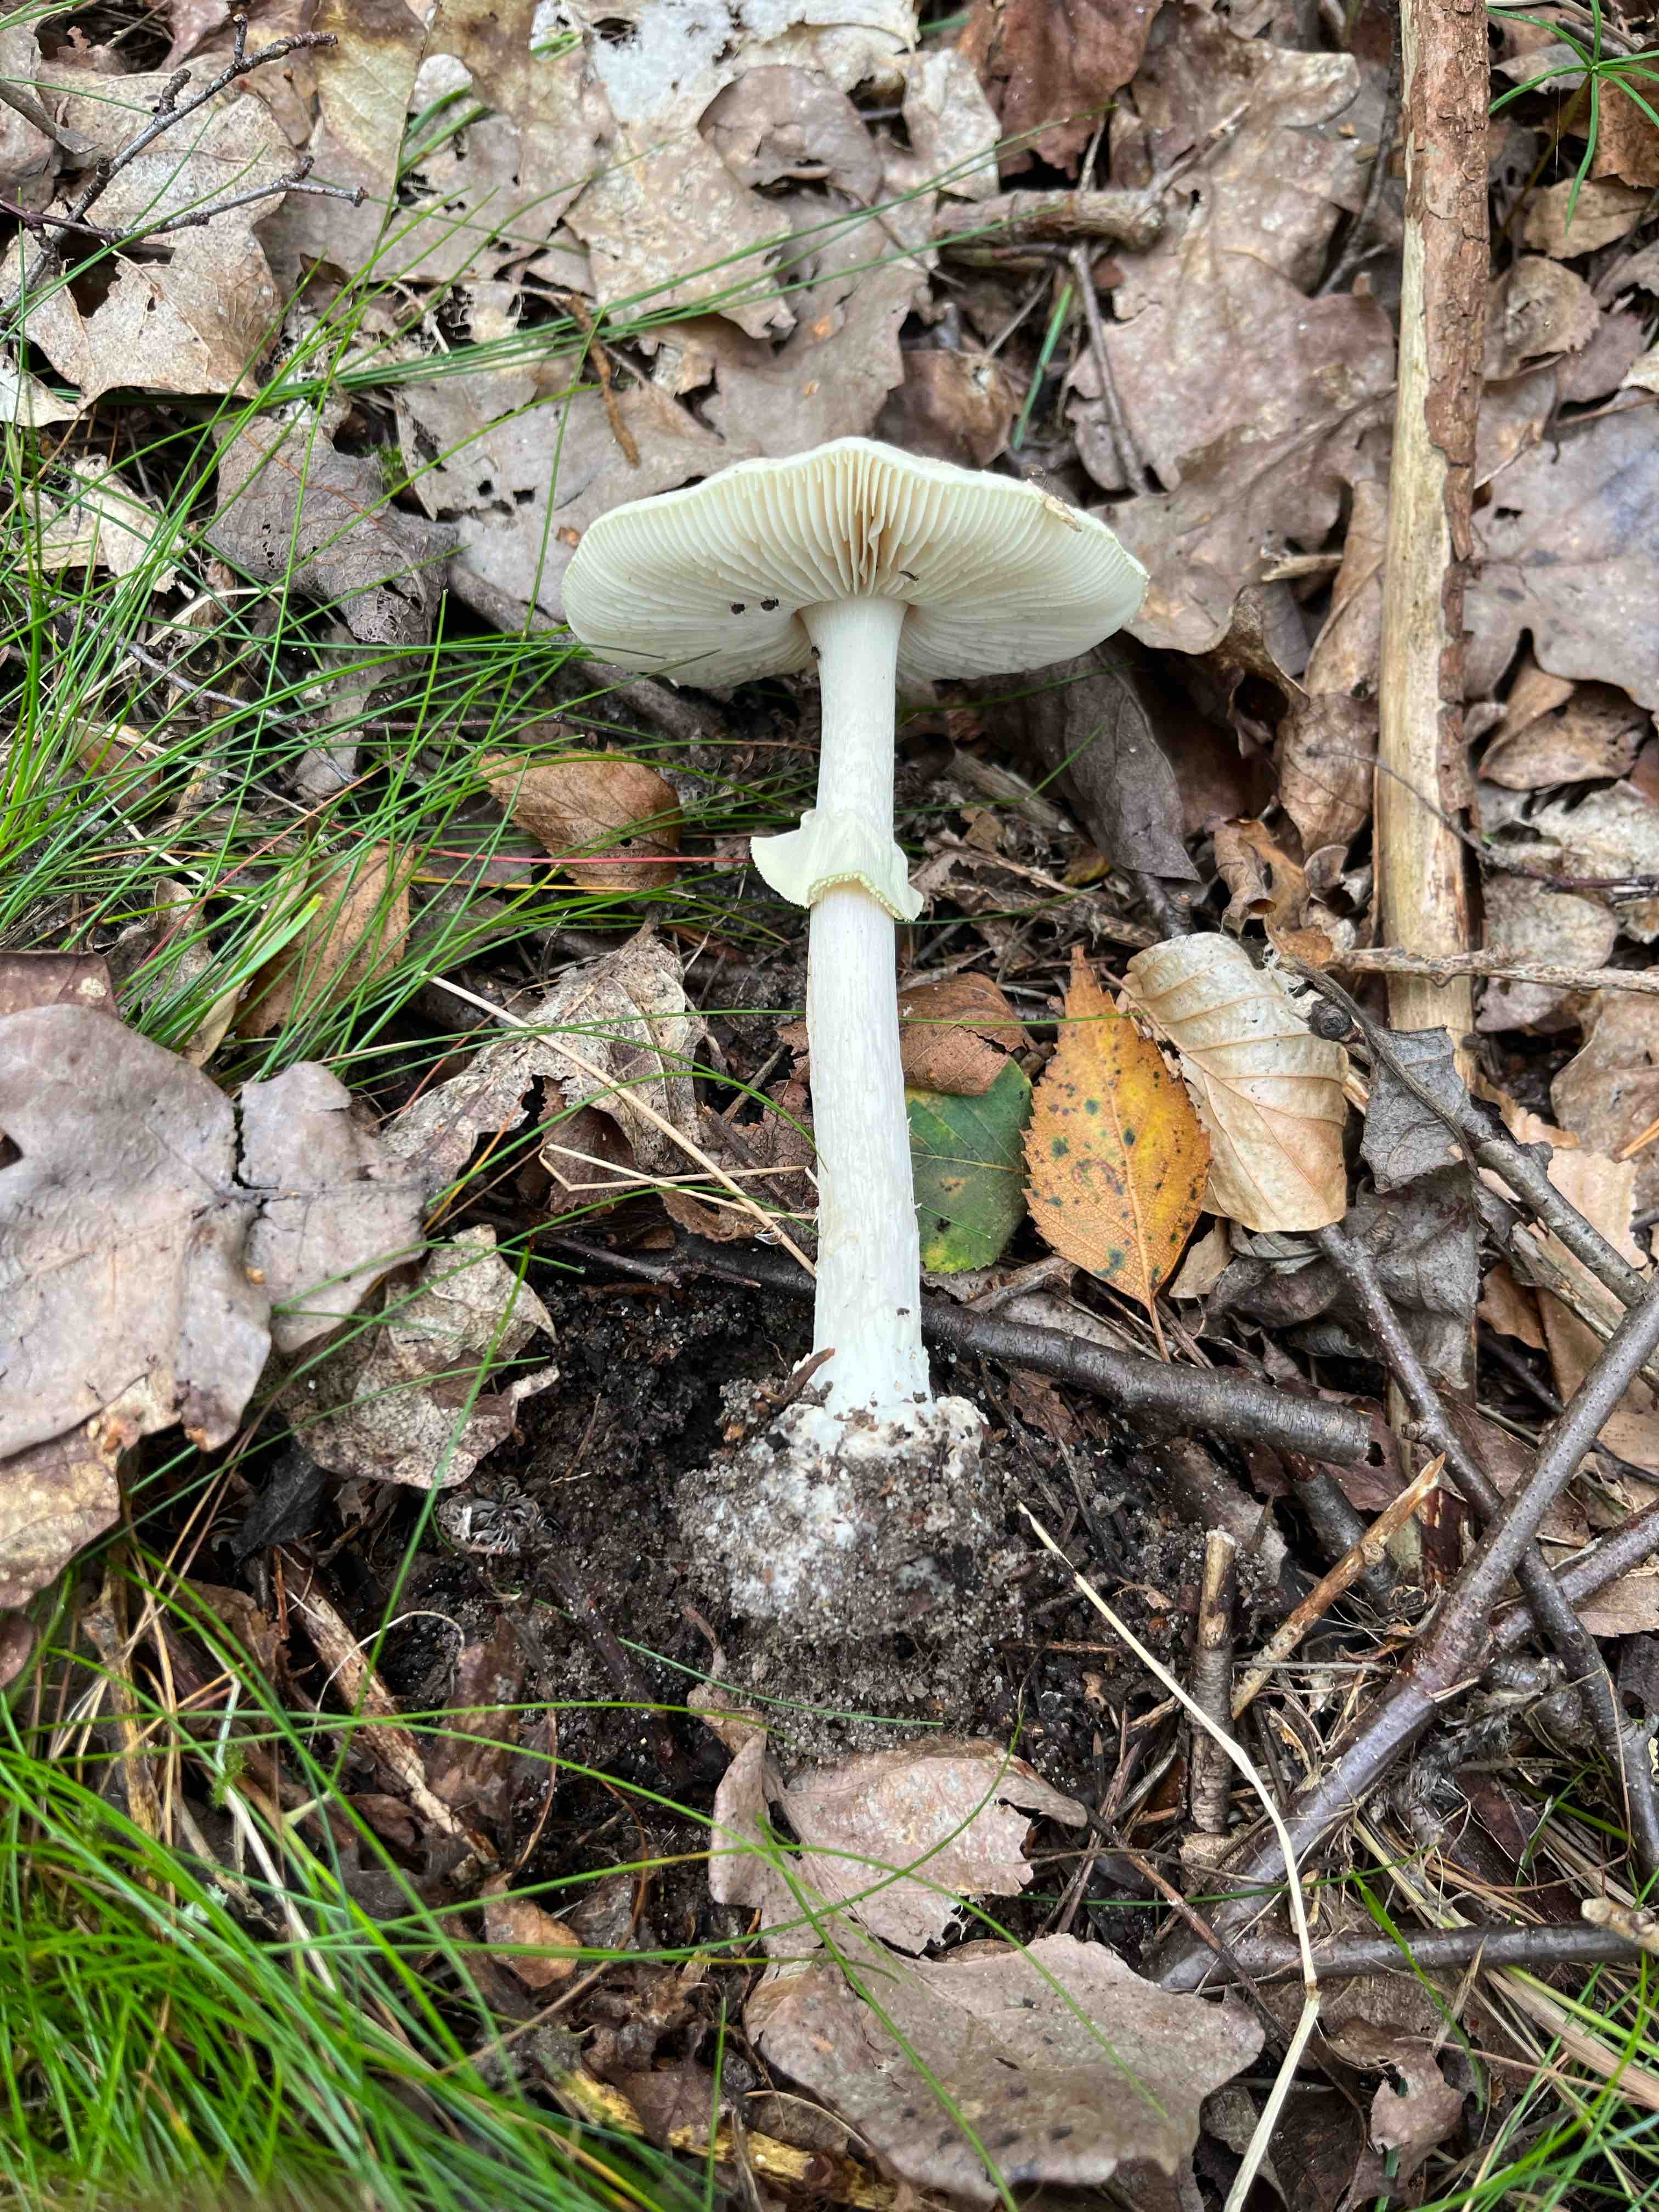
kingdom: Fungi
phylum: Basidiomycota
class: Agaricomycetes
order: Agaricales
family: Amanitaceae
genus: Amanita
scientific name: Amanita citrina
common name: kugleknoldet fluesvamp
